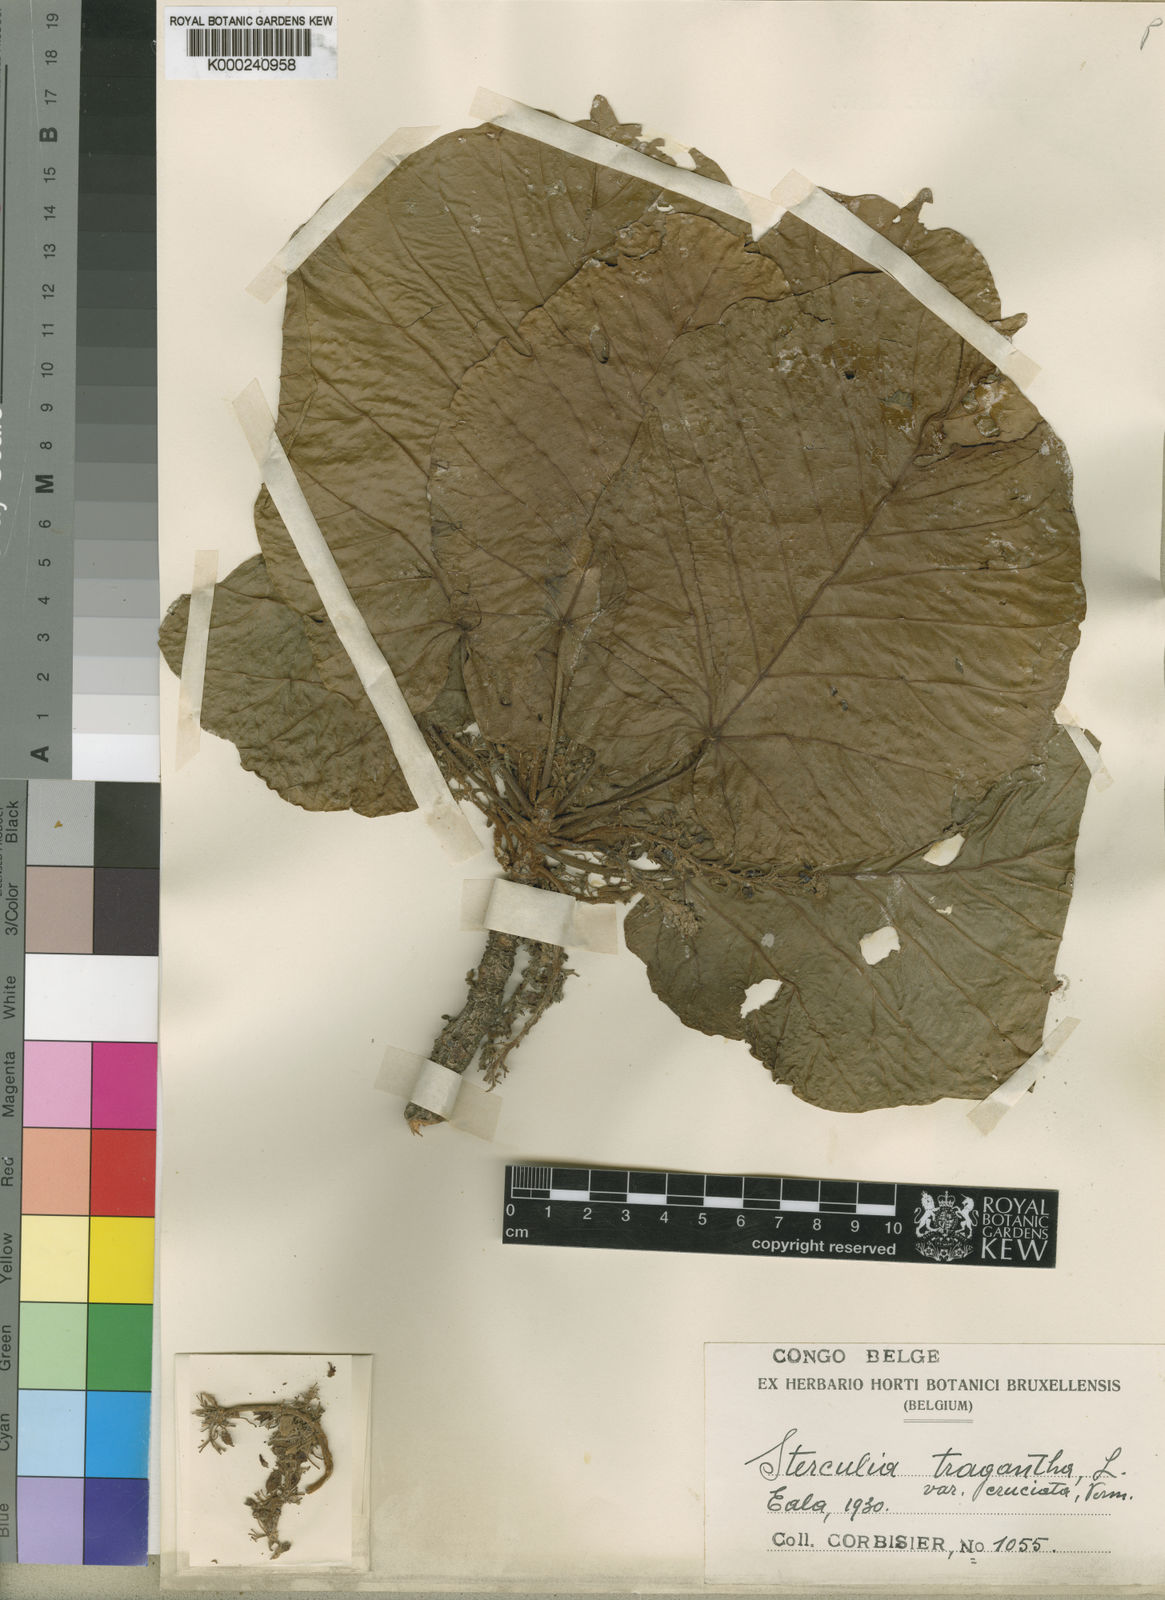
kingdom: Plantae
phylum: Tracheophyta
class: Magnoliopsida
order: Malvales
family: Malvaceae
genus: Sterculia
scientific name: Sterculia dawei
